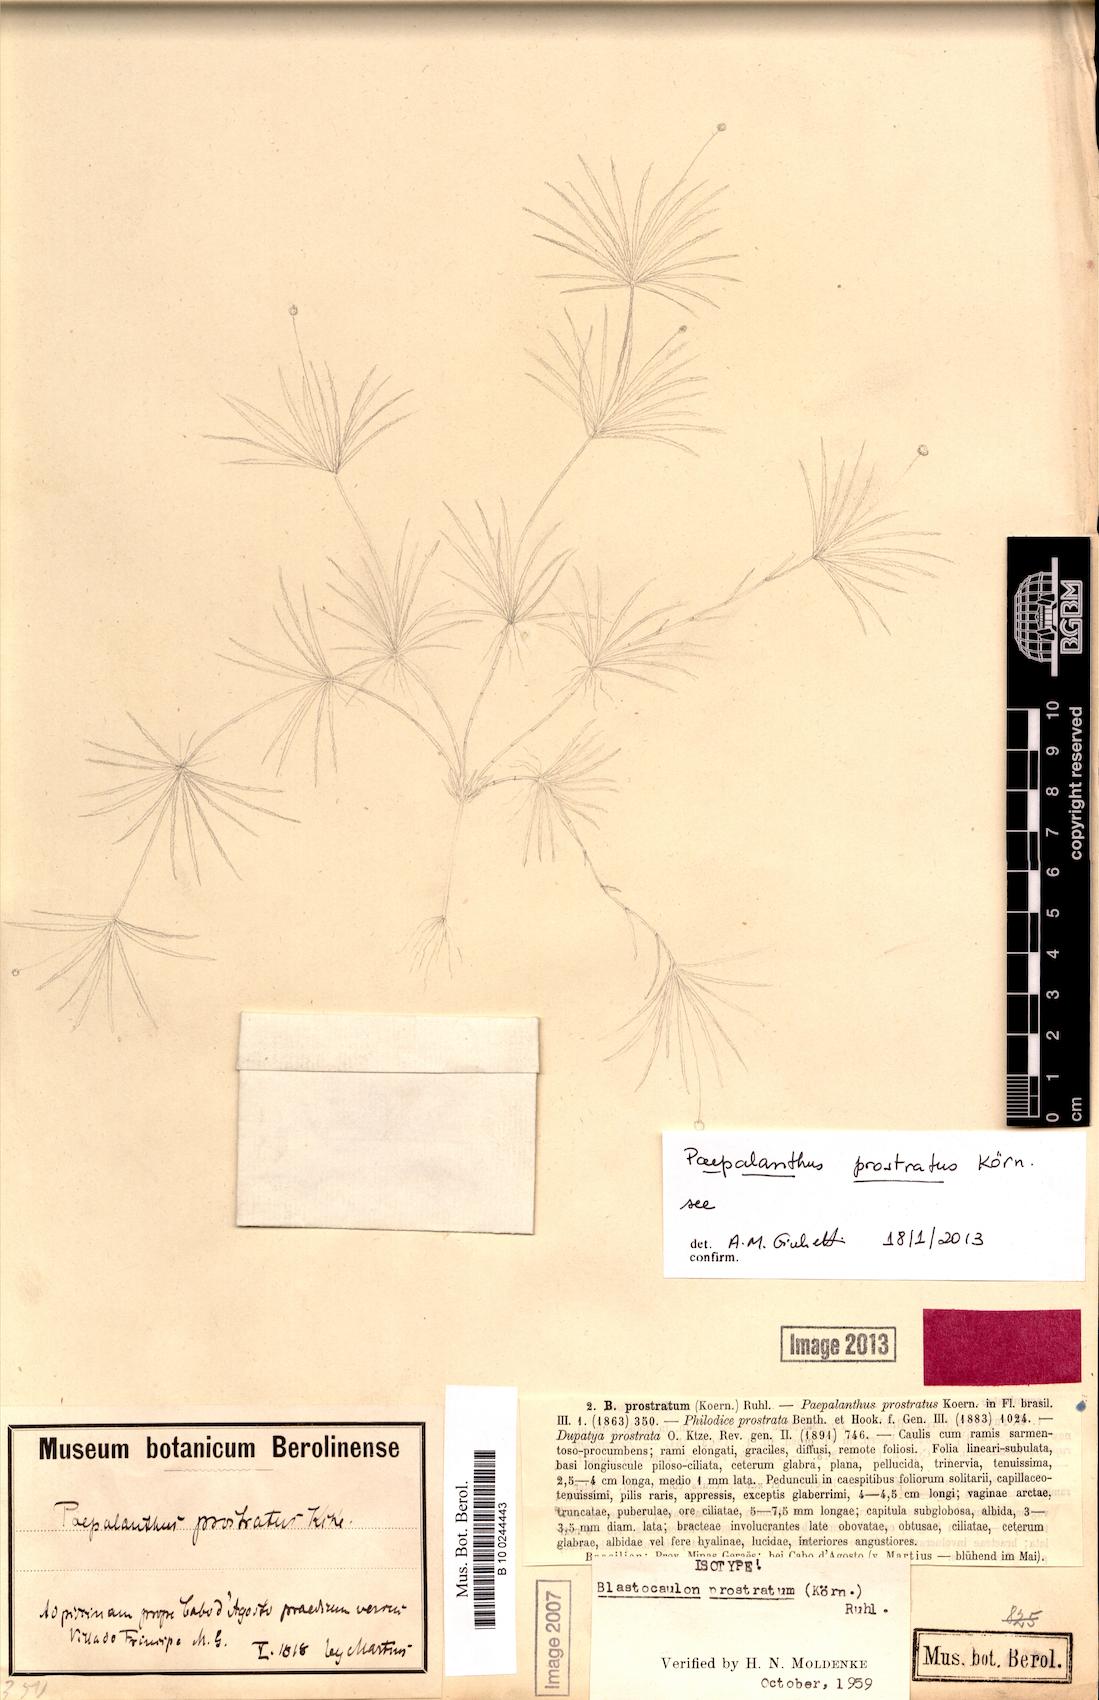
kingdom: Plantae
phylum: Tracheophyta
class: Liliopsida
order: Poales
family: Eriocaulaceae
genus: Paepalanthus
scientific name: Paepalanthus prostratus
